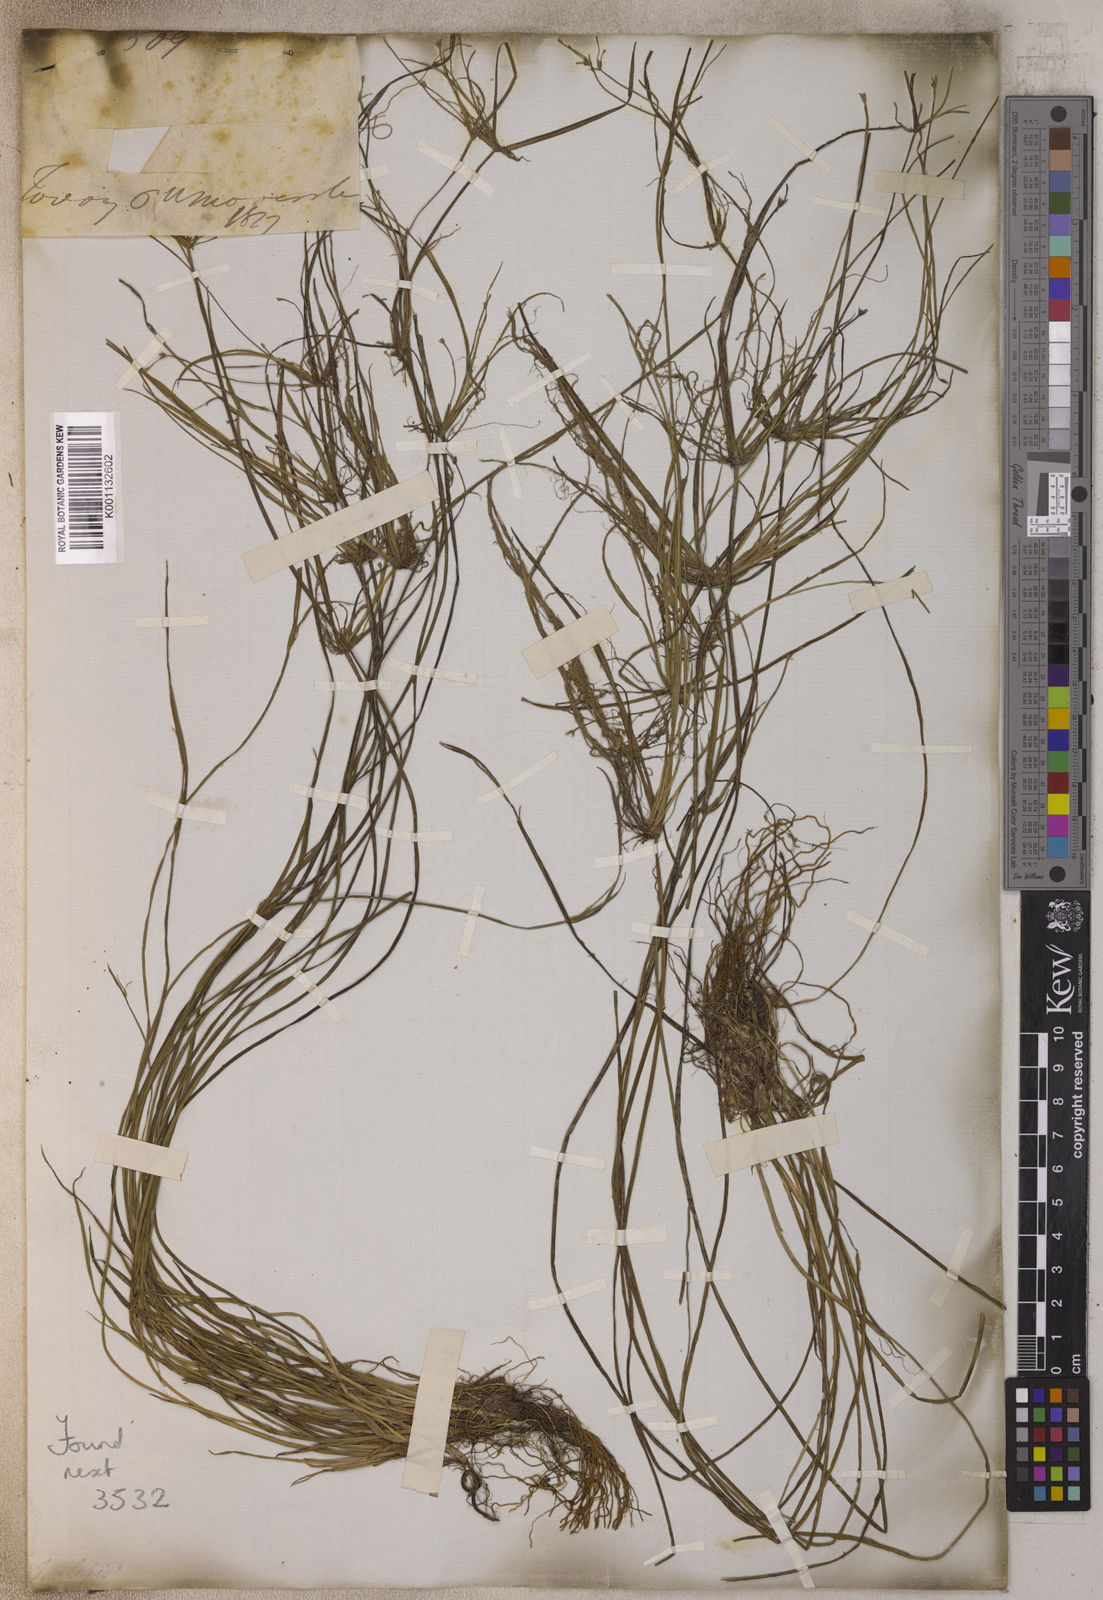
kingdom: Plantae
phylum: Tracheophyta
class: Liliopsida
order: Poales
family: Cyperaceae
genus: Cyperus
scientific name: Cyperus isolepis
